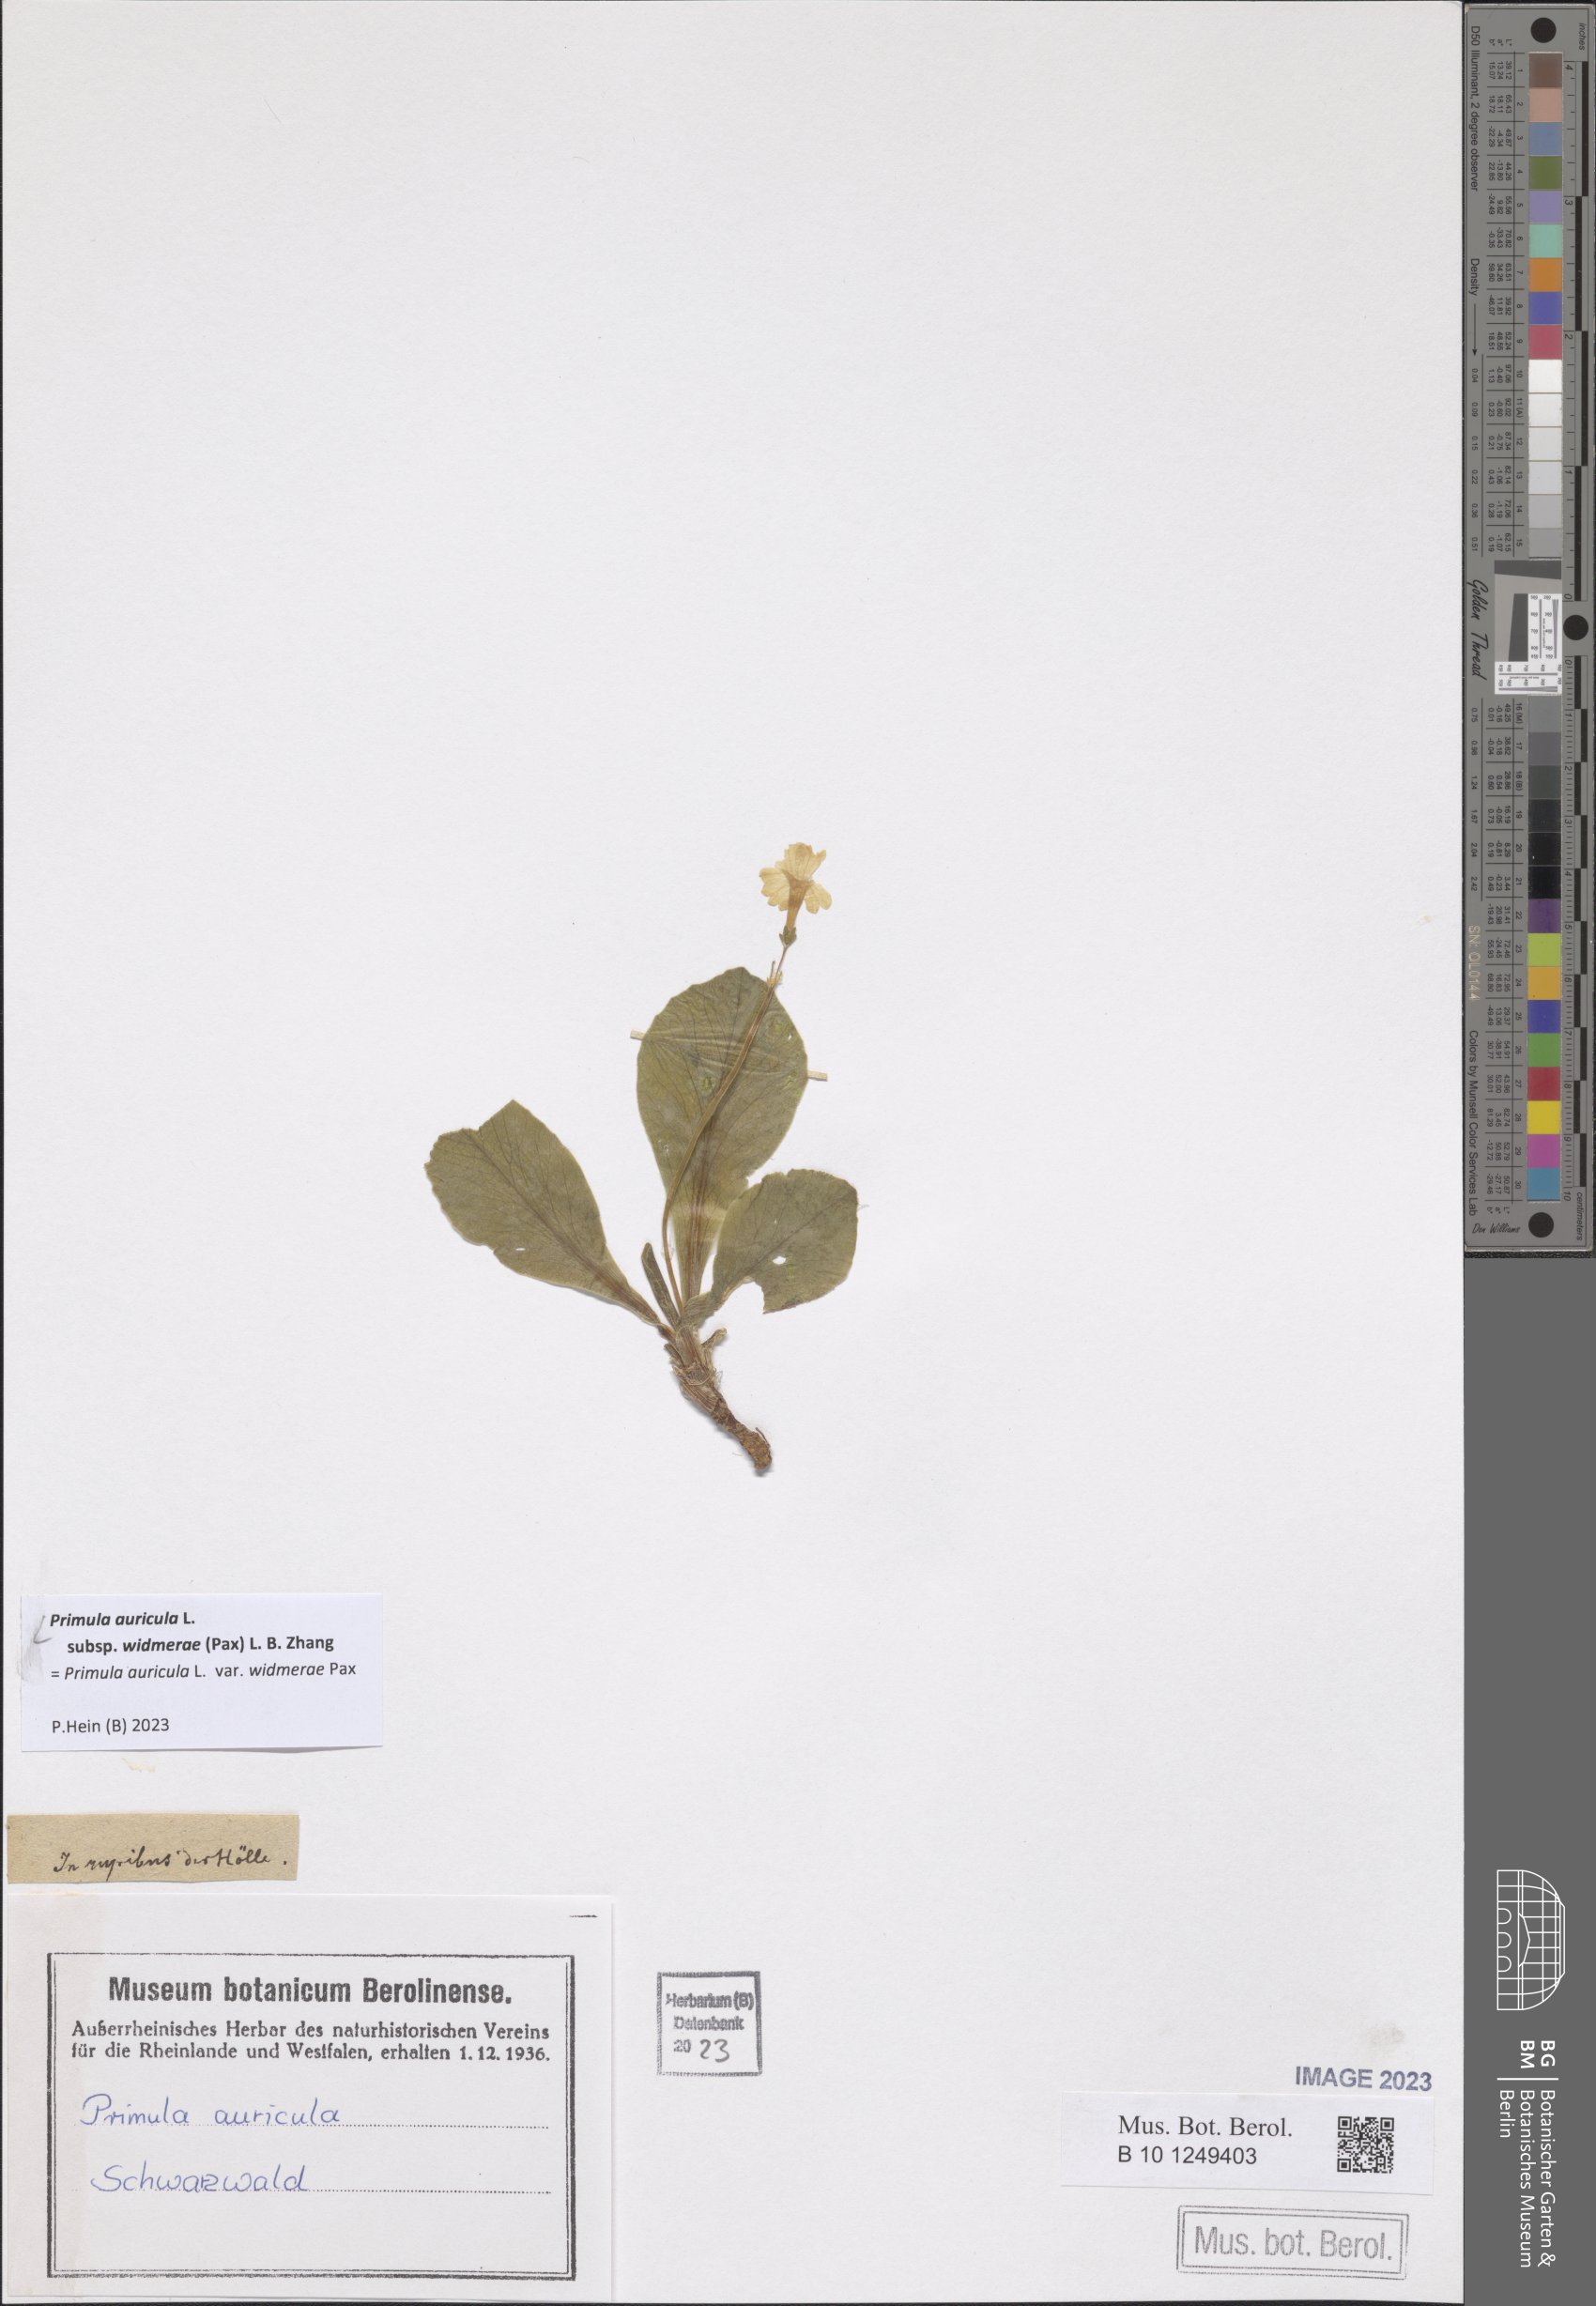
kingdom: Plantae
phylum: Tracheophyta
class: Magnoliopsida
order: Ericales
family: Primulaceae
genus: Primula
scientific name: Primula auricula
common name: Auricula
